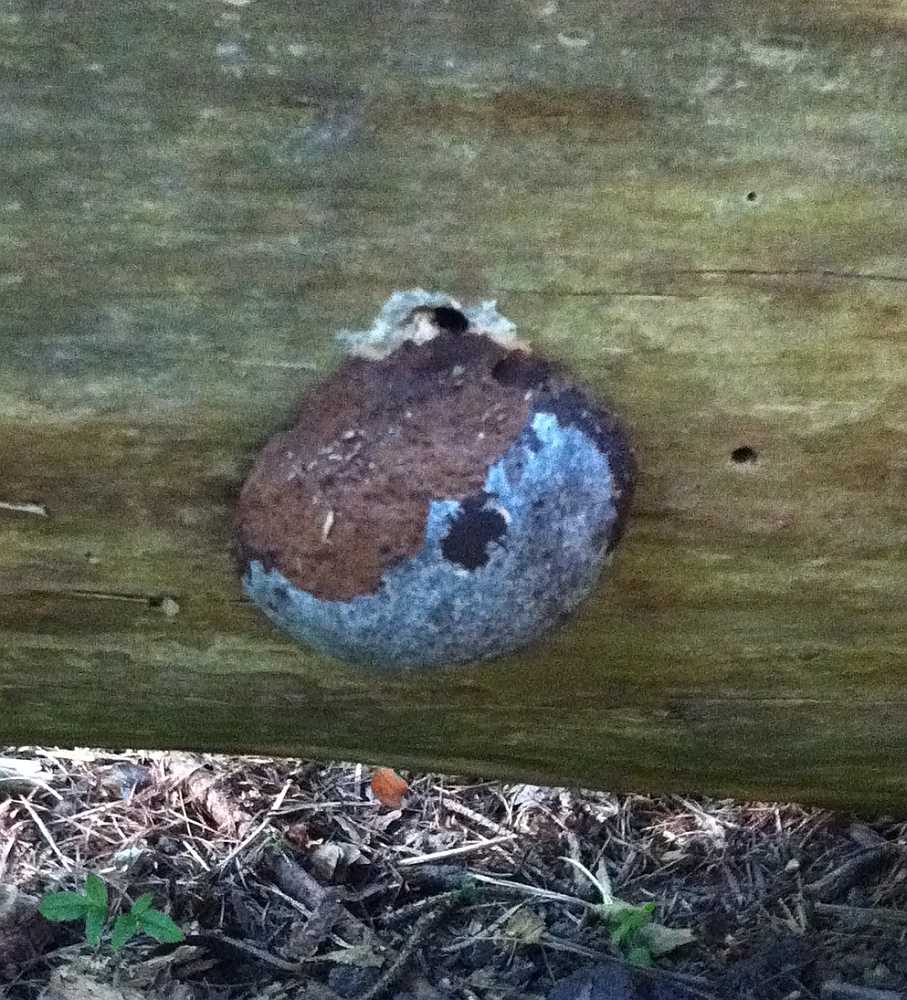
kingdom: Protozoa
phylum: Mycetozoa
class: Myxomycetes
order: Cribrariales
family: Tubiferaceae
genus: Reticularia
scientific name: Reticularia lycoperdon
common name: skinnende støvpude
